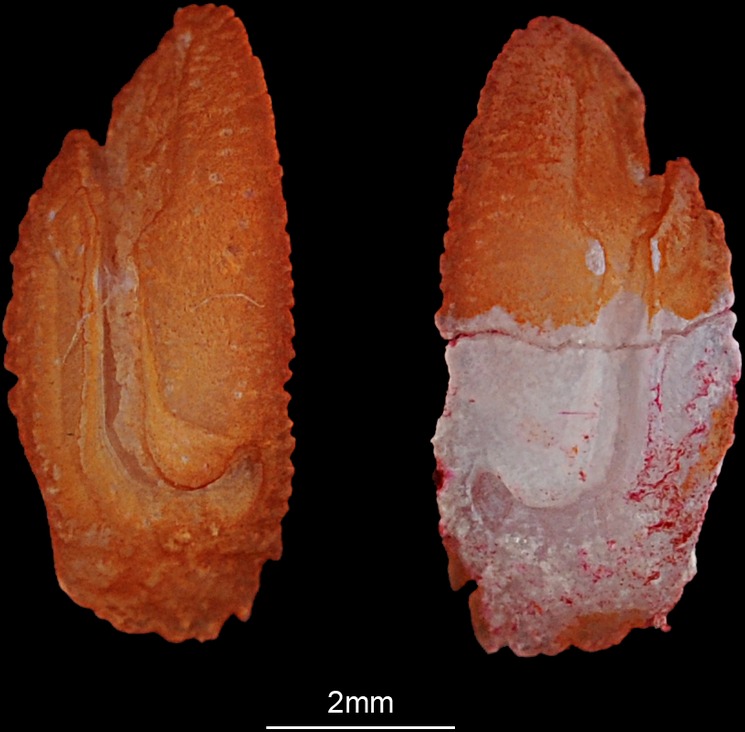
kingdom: Animalia
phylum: Chordata
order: Perciformes
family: Haemulidae
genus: Diagramma
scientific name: Diagramma pictum
